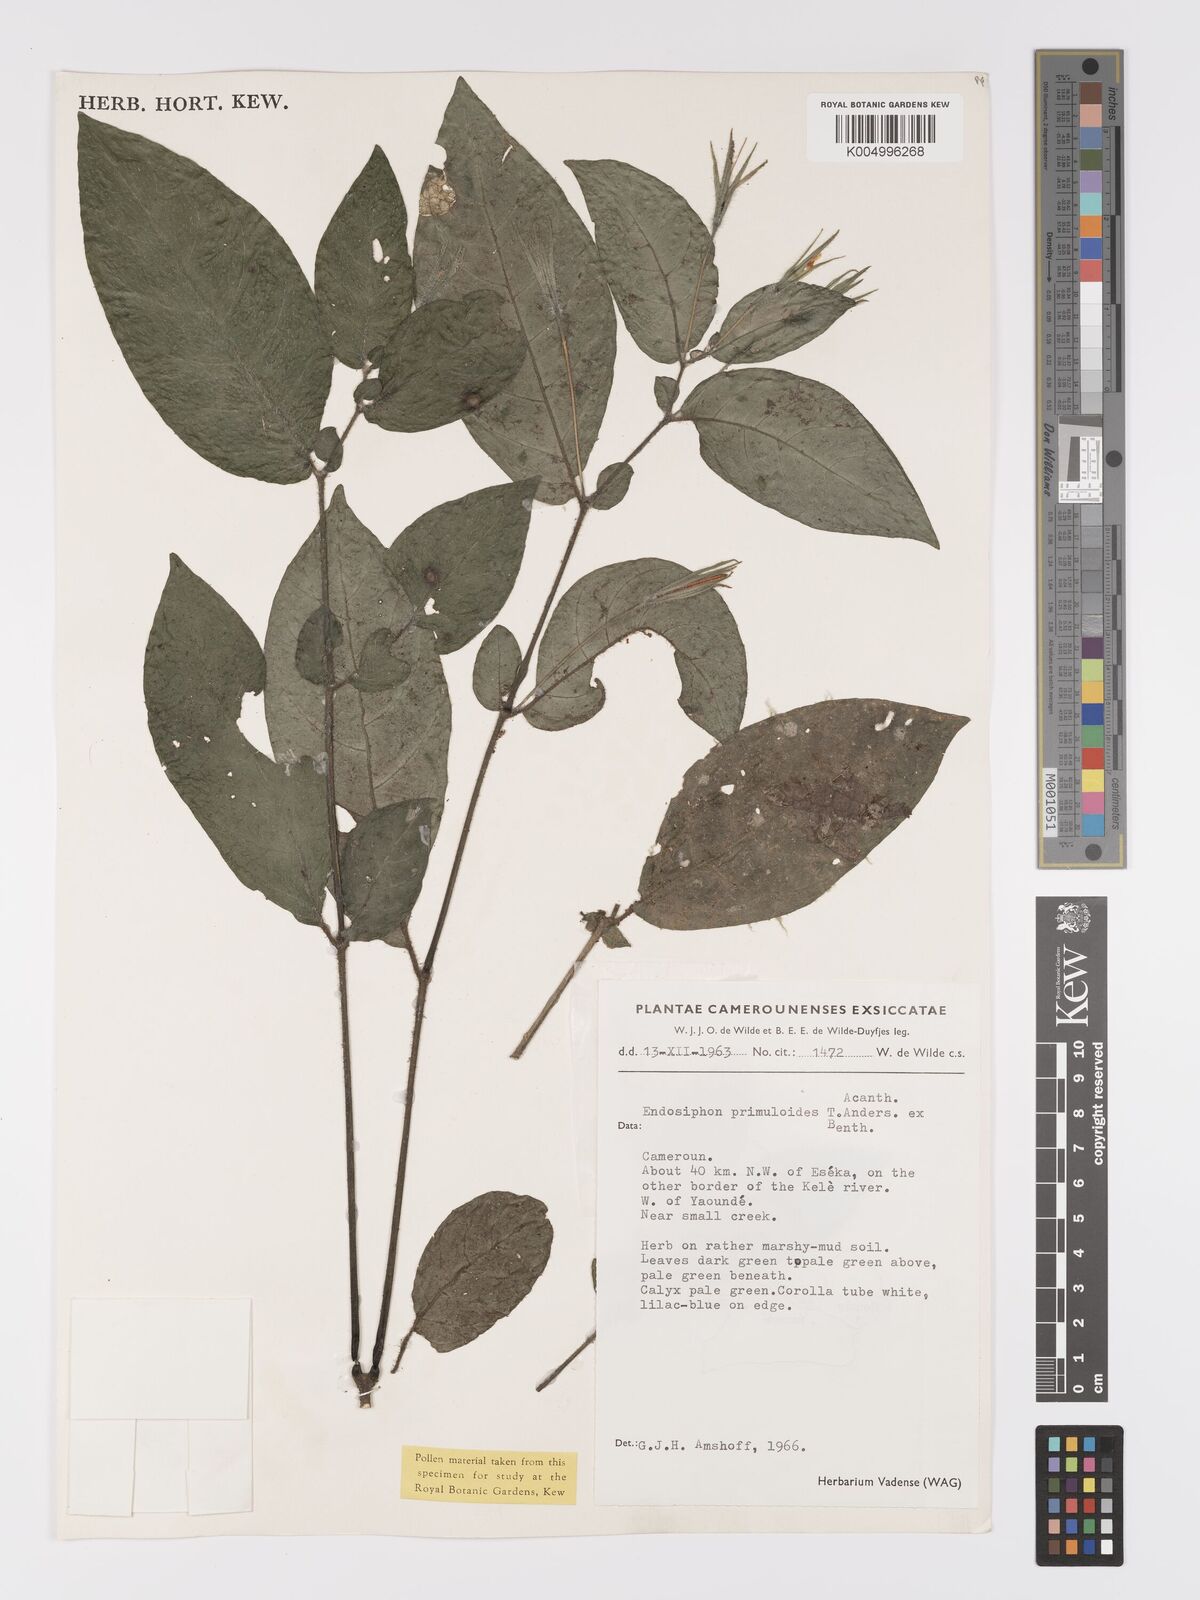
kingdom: Plantae
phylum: Tracheophyta
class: Magnoliopsida
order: Lamiales
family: Acanthaceae
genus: Ruellia
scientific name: Ruellia primuloides
